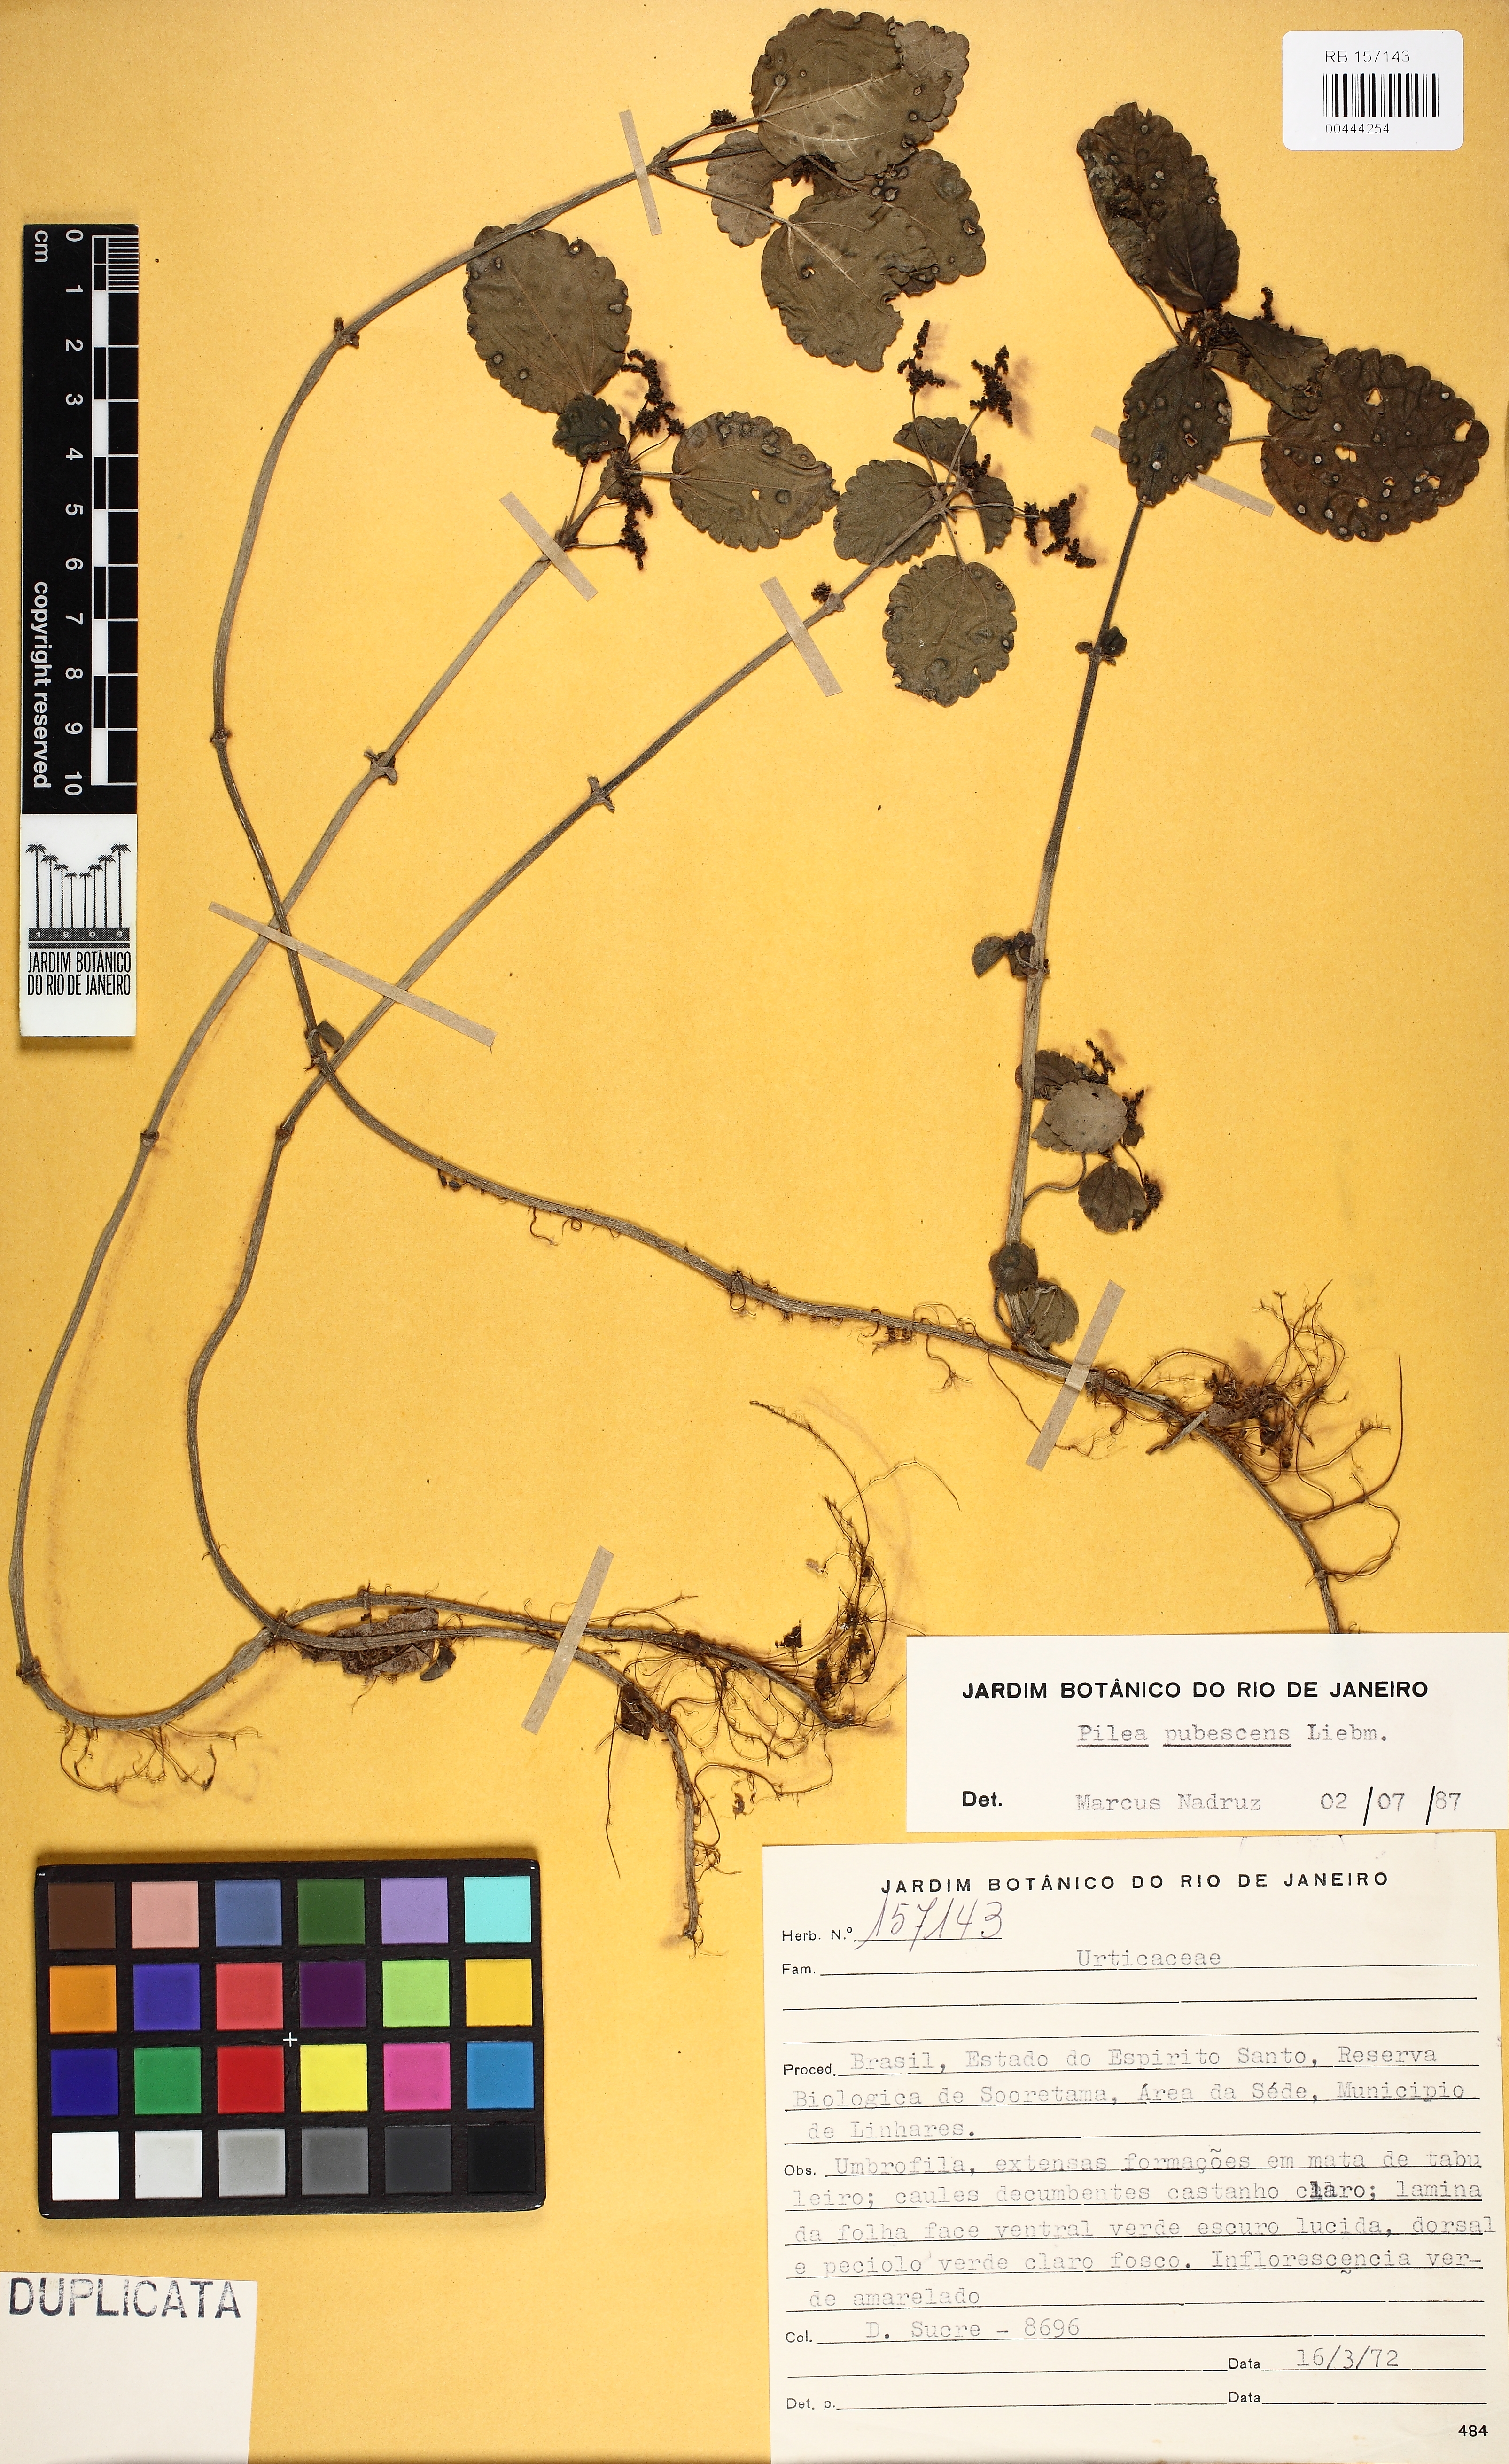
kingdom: Plantae
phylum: Tracheophyta
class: Magnoliopsida
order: Rosales
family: Urticaceae
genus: Pilea
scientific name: Pilea pubescens
